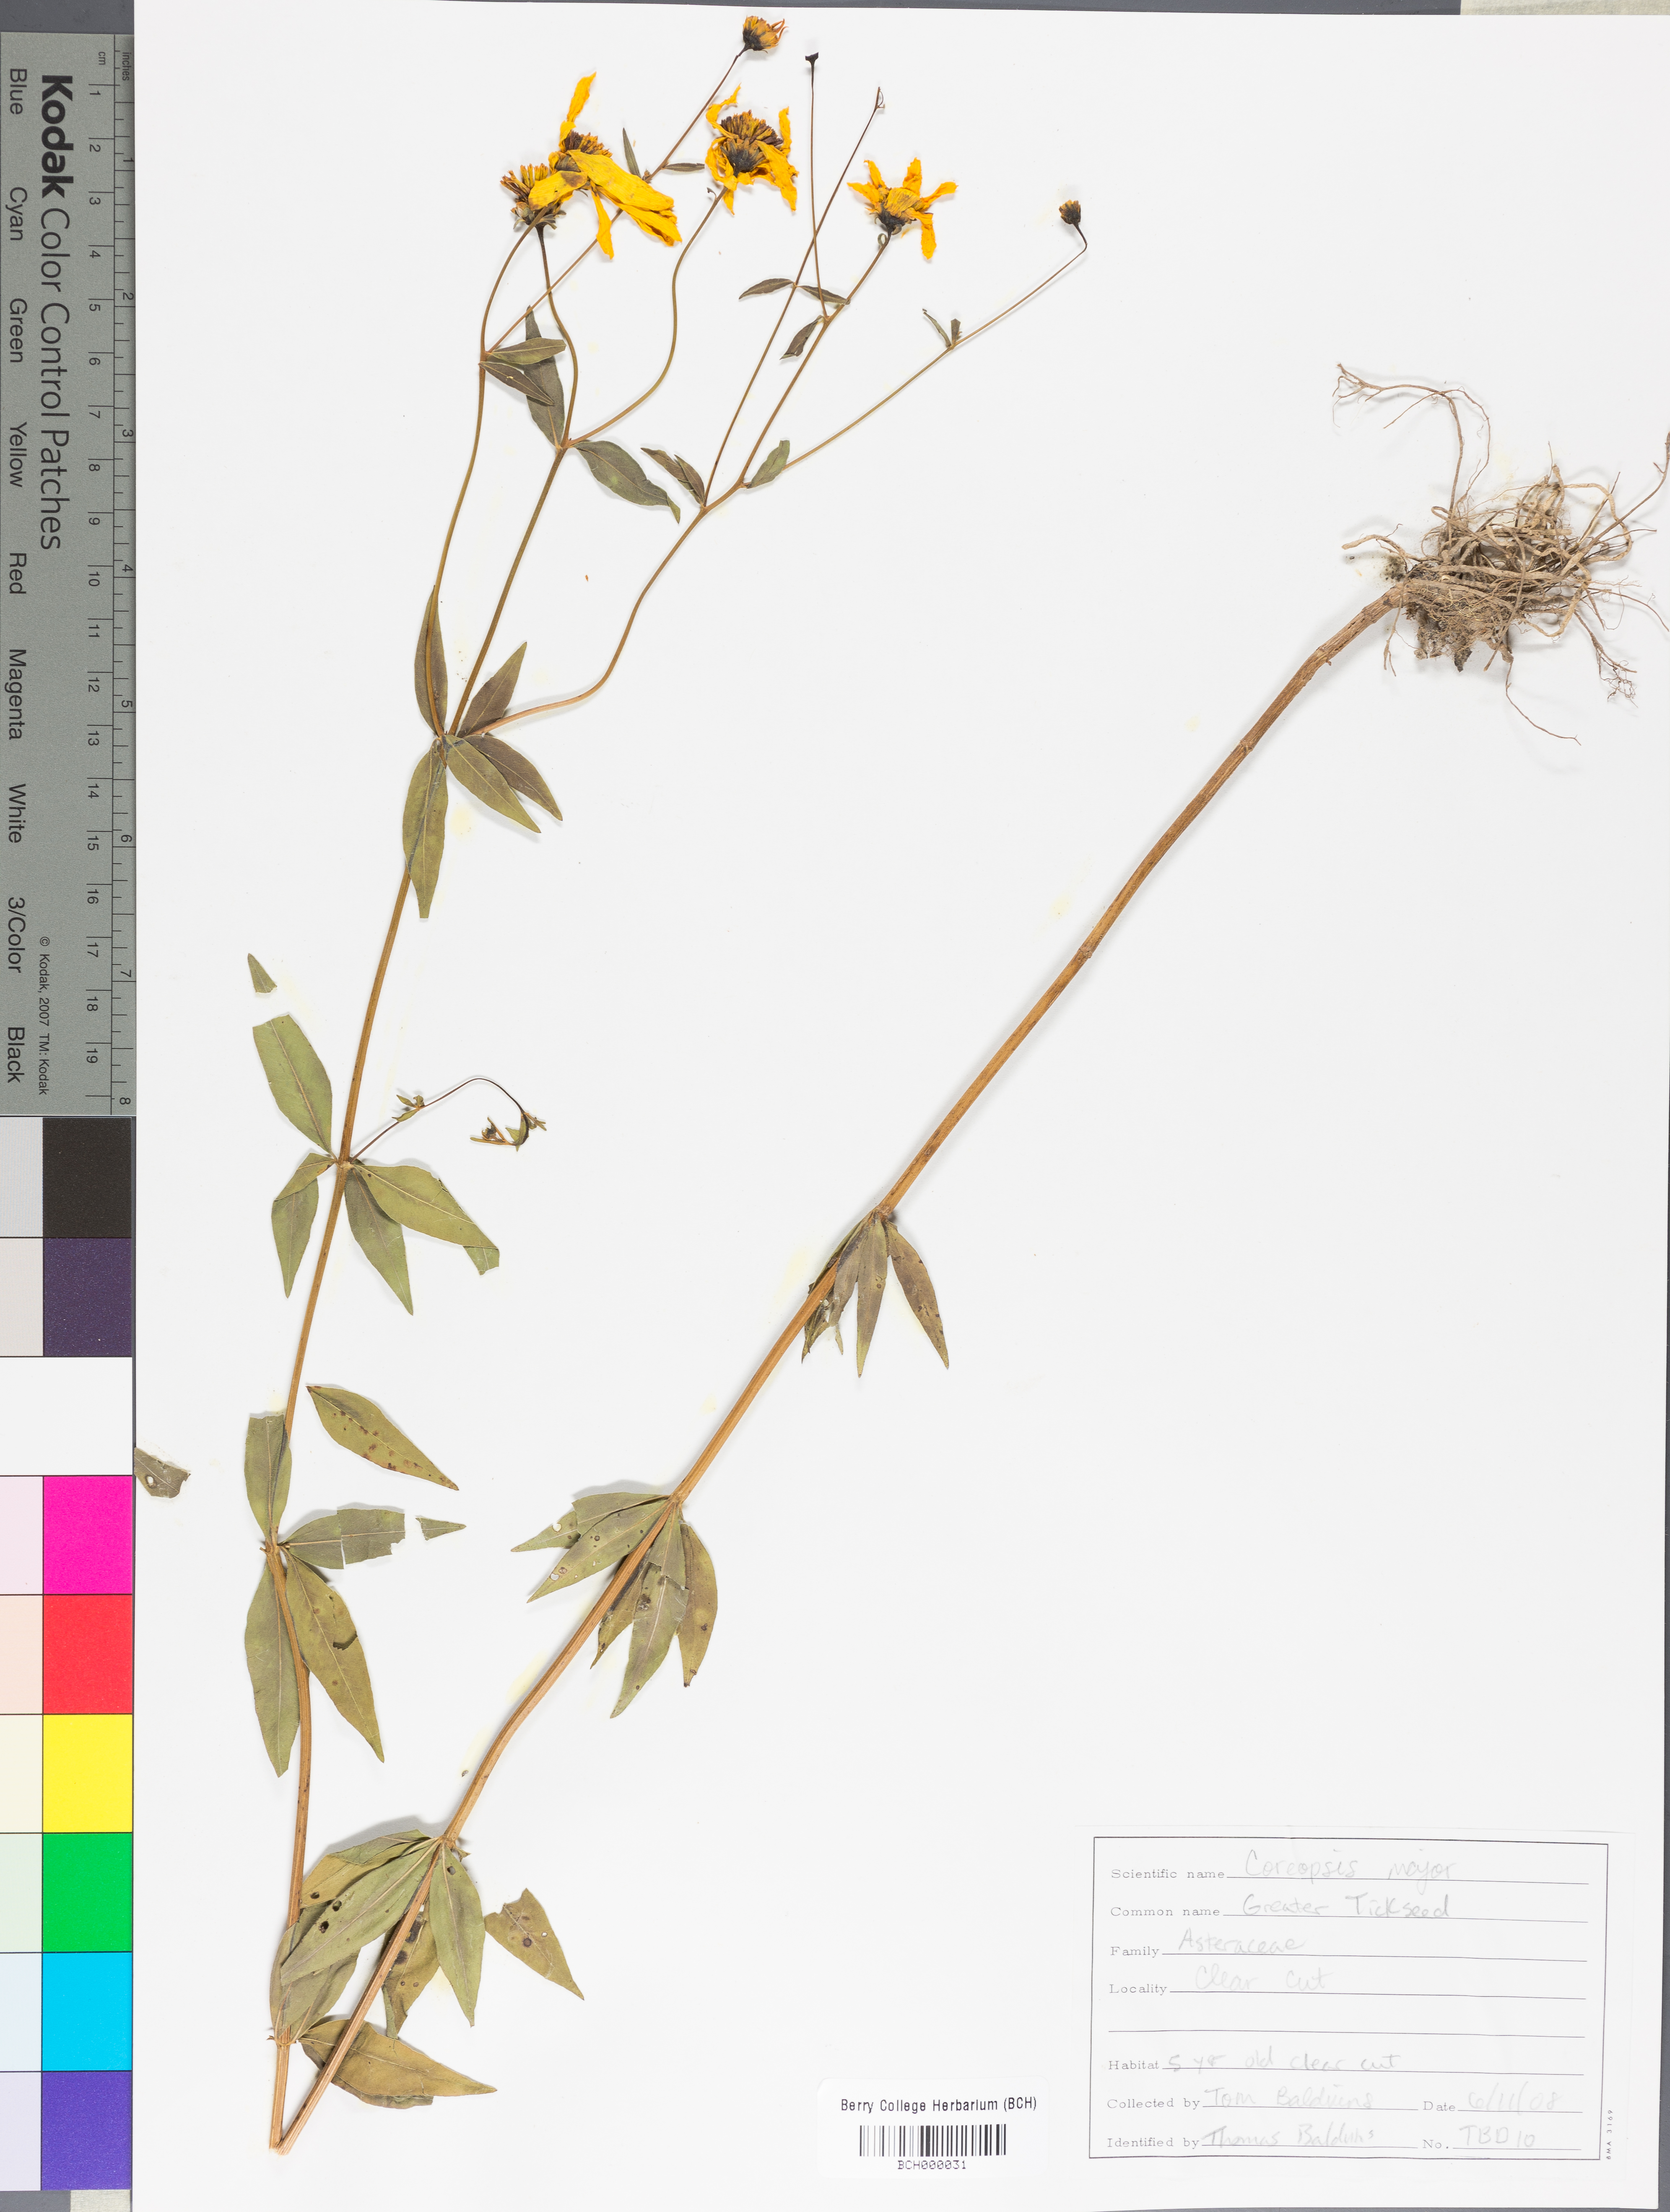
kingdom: Plantae
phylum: Tracheophyta
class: Magnoliopsida
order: Asterales
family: Asteraceae
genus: Coreopsis
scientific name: Coreopsis major
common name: Forest tickseed
